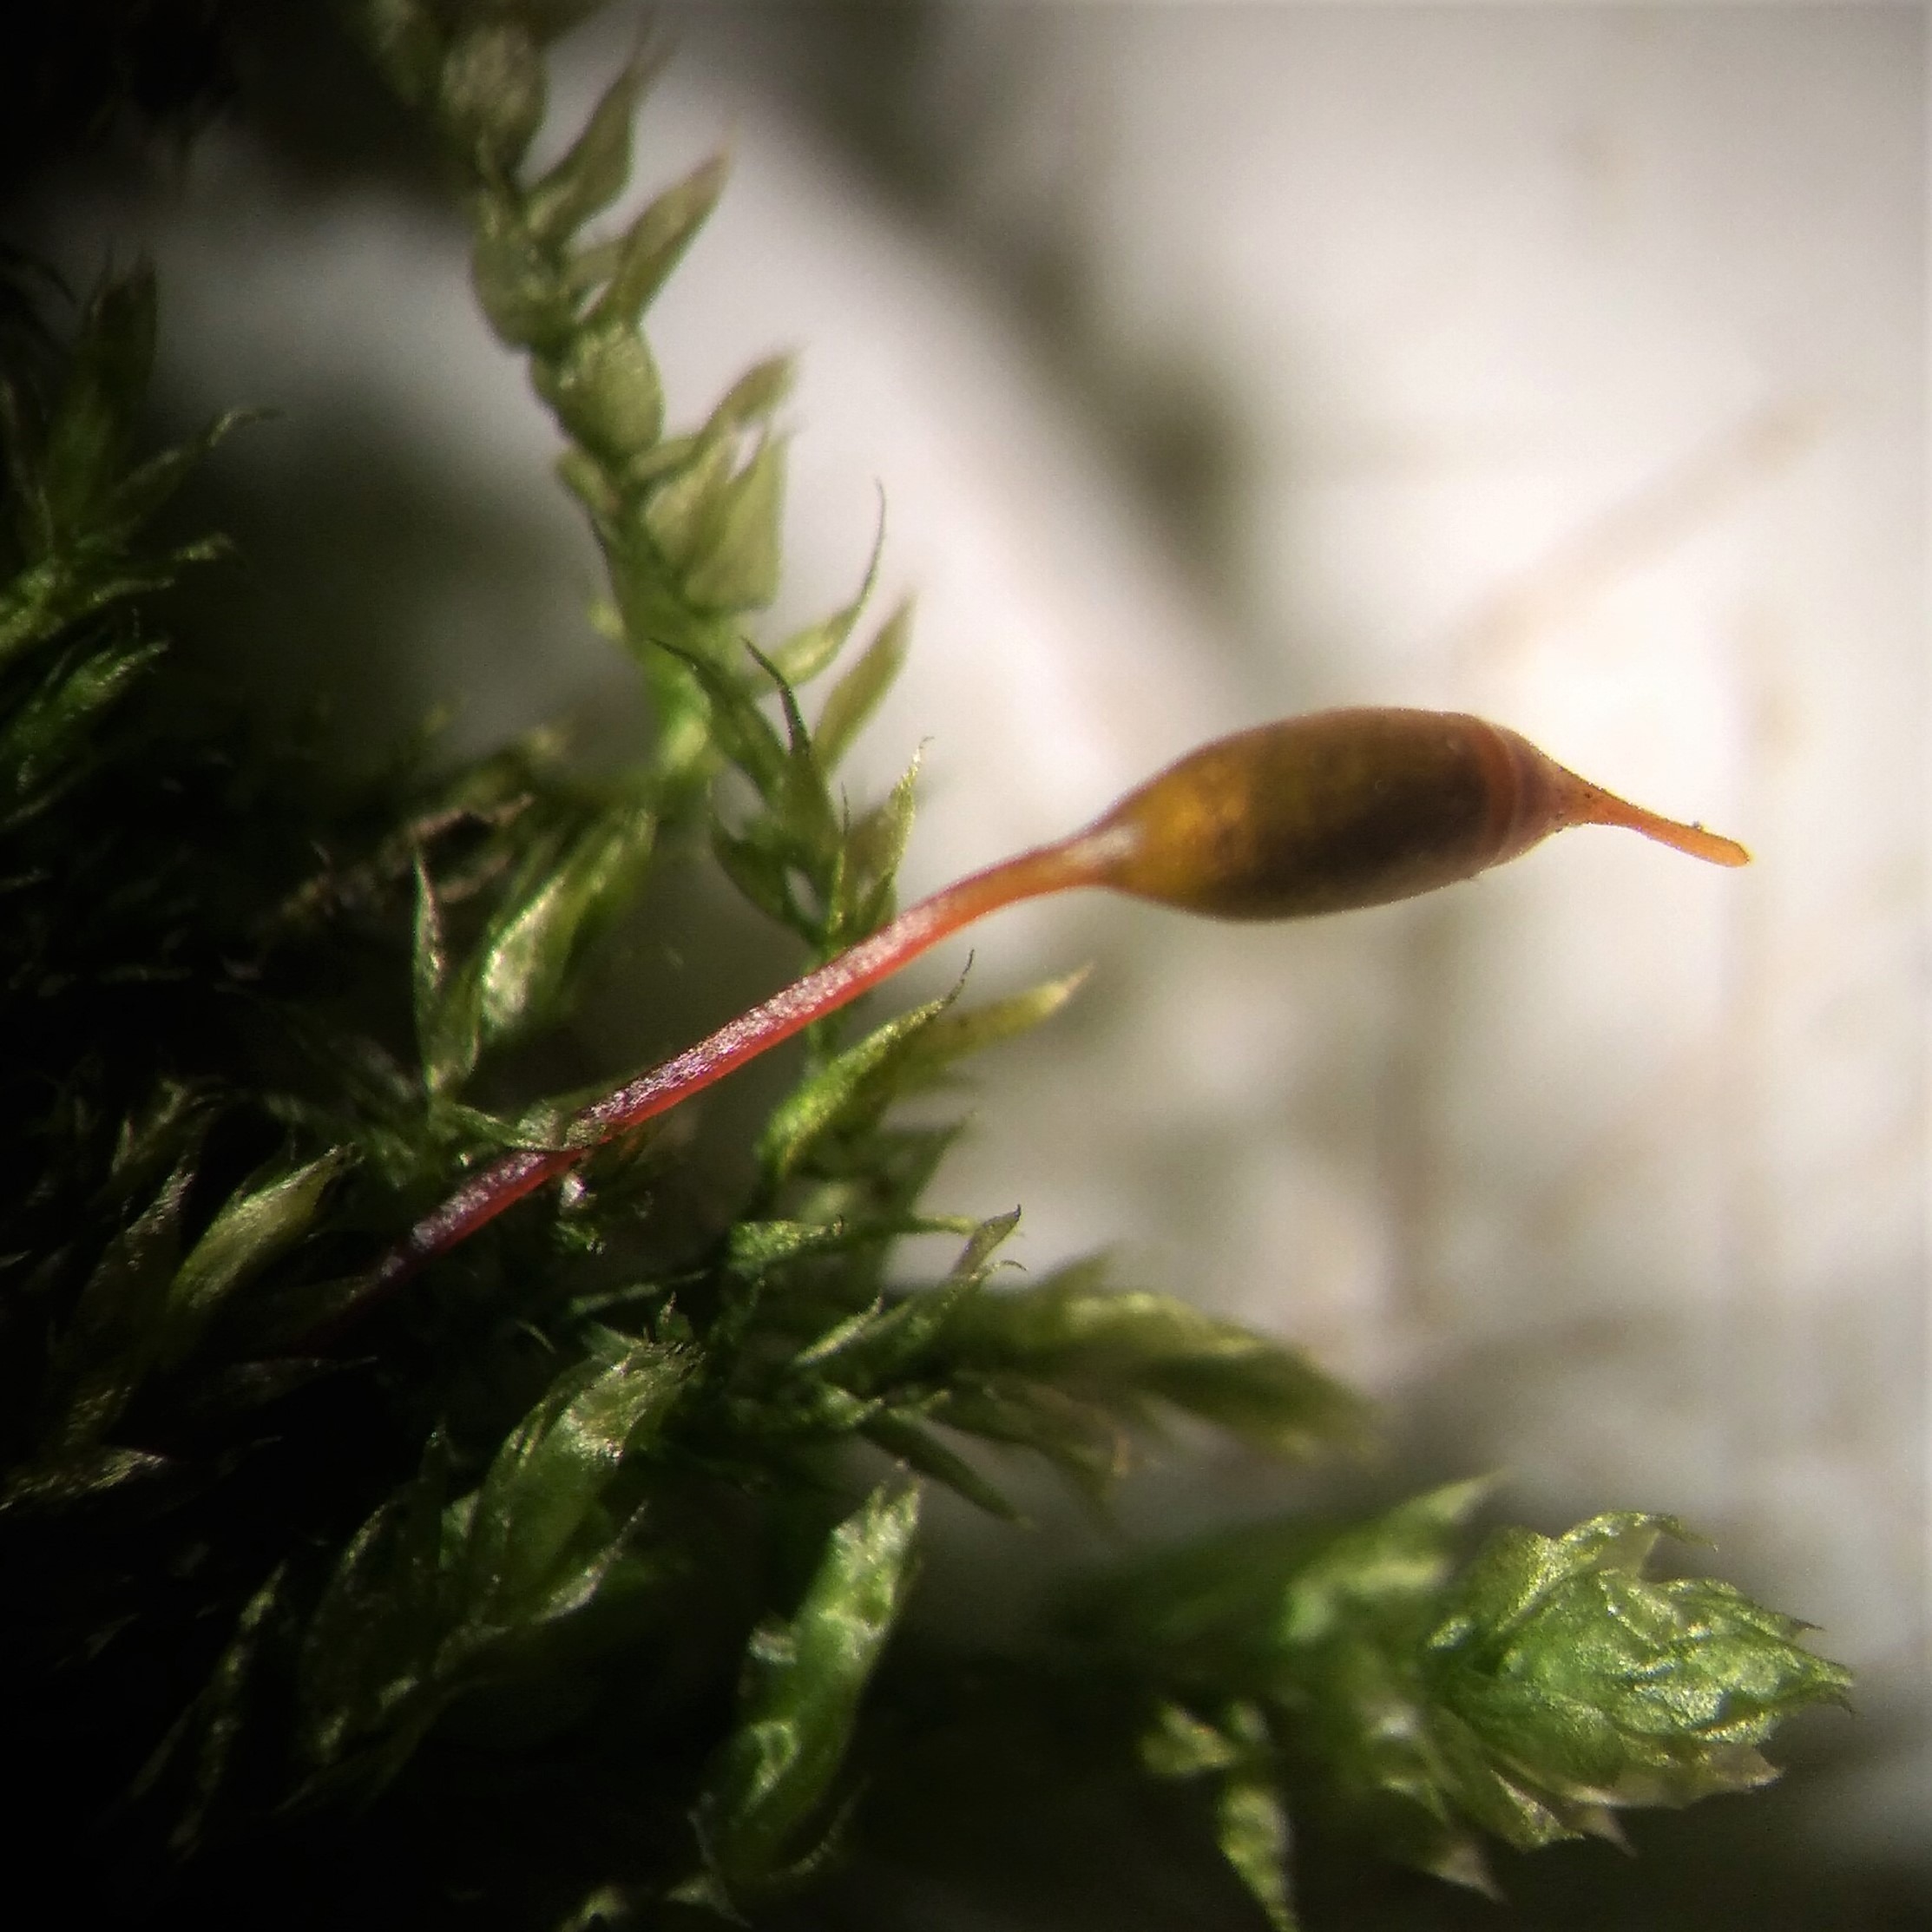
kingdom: Plantae
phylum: Bryophyta
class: Bryopsida
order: Hypnales
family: Brachytheciaceae
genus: Rhynchostegium
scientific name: Rhynchostegium confertum
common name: Skov-langnæb
